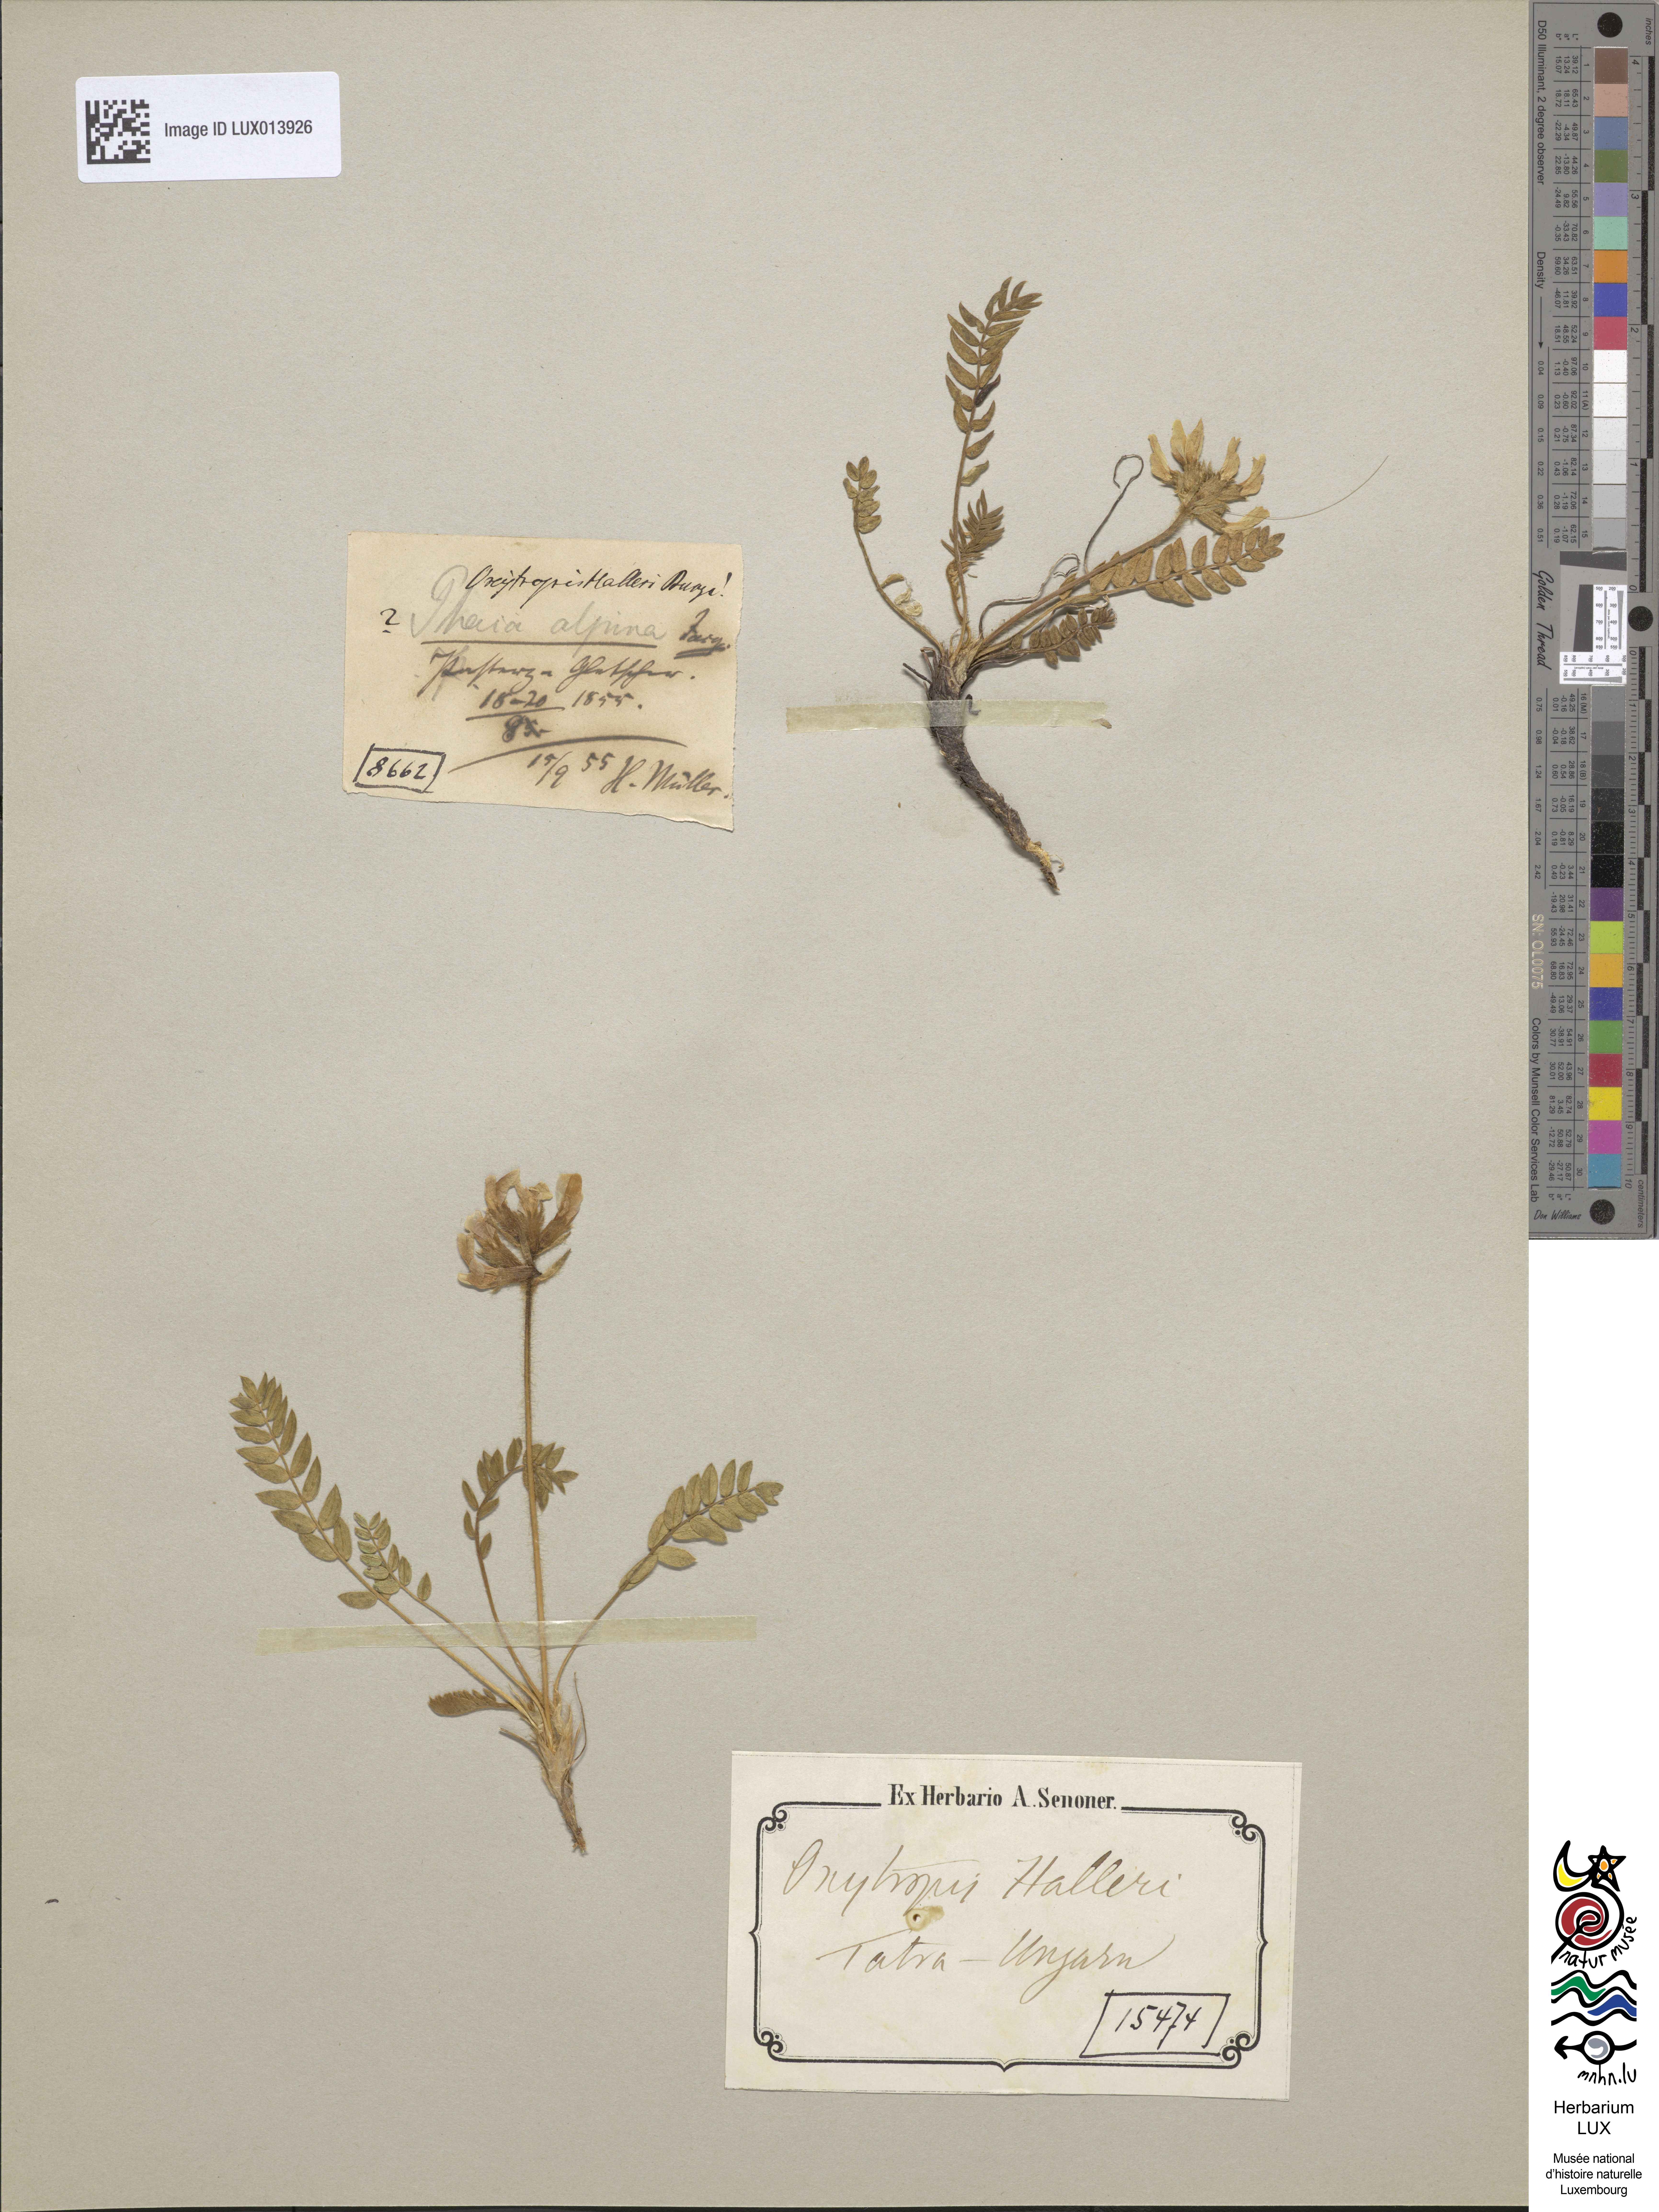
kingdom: Plantae
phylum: Tracheophyta
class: Magnoliopsida
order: Fabales
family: Fabaceae
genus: Oxytropis
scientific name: Oxytropis halleri
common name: Purple oxytropis
